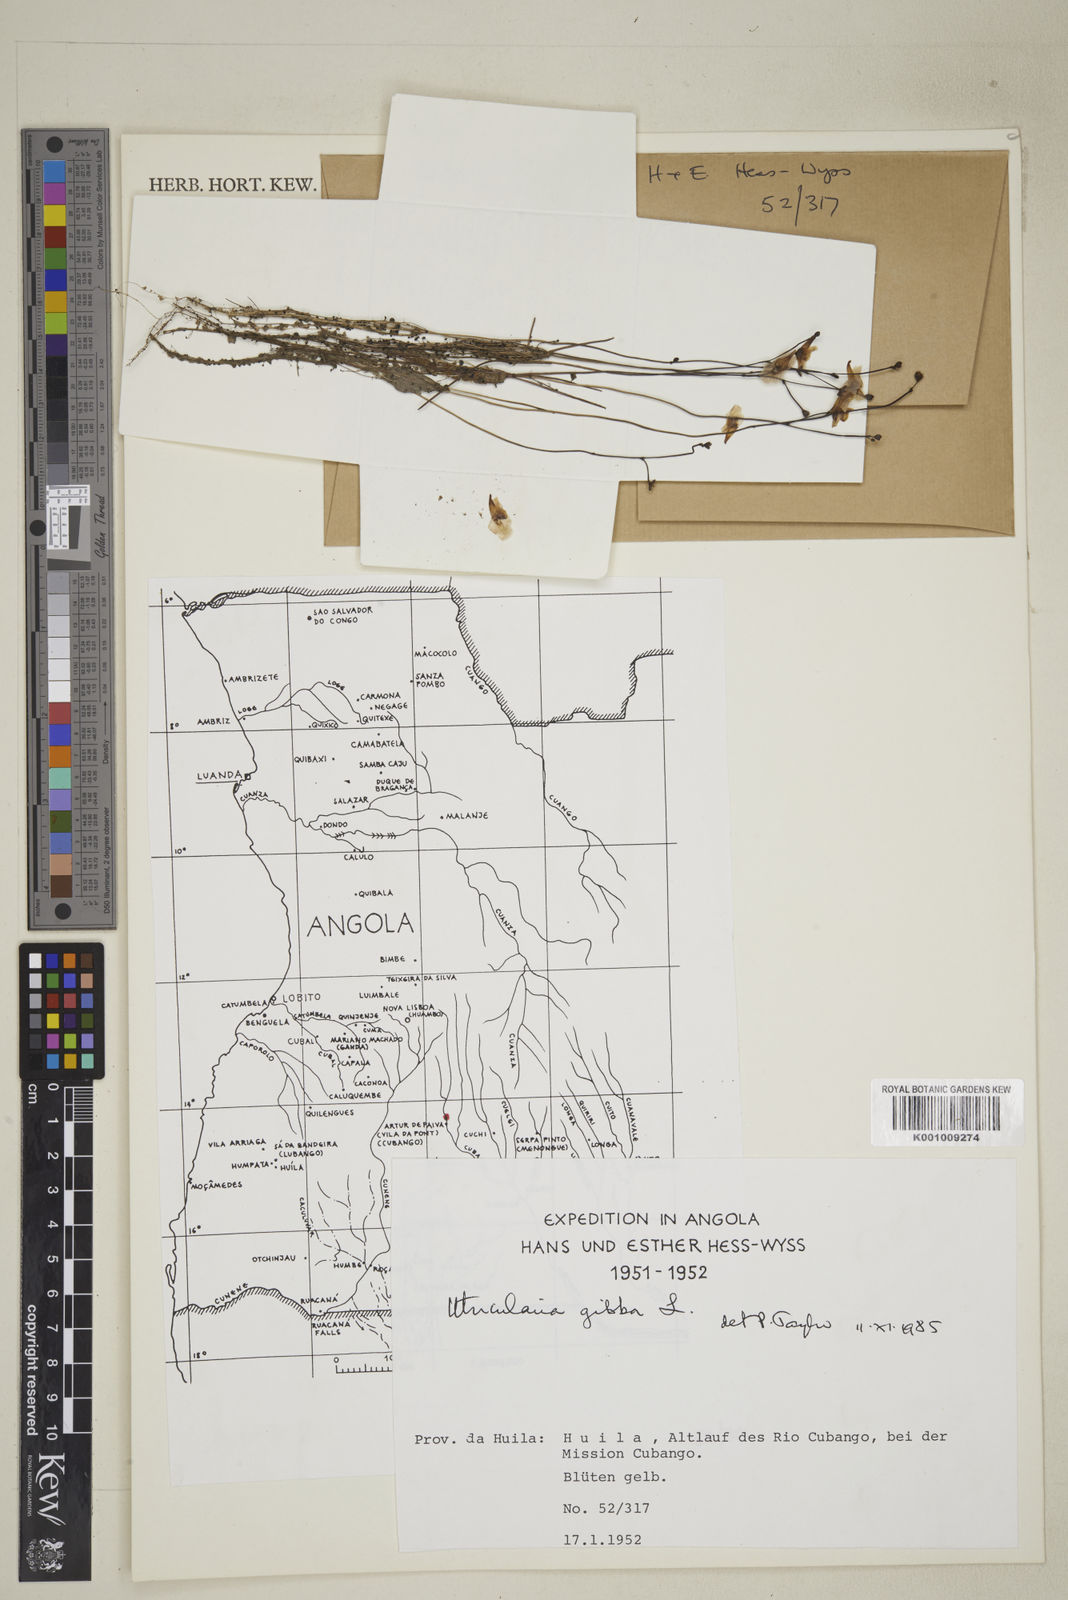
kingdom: Plantae
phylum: Tracheophyta
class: Magnoliopsida
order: Lamiales
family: Lentibulariaceae
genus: Utricularia
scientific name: Utricularia gibba
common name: Humped bladderwort
